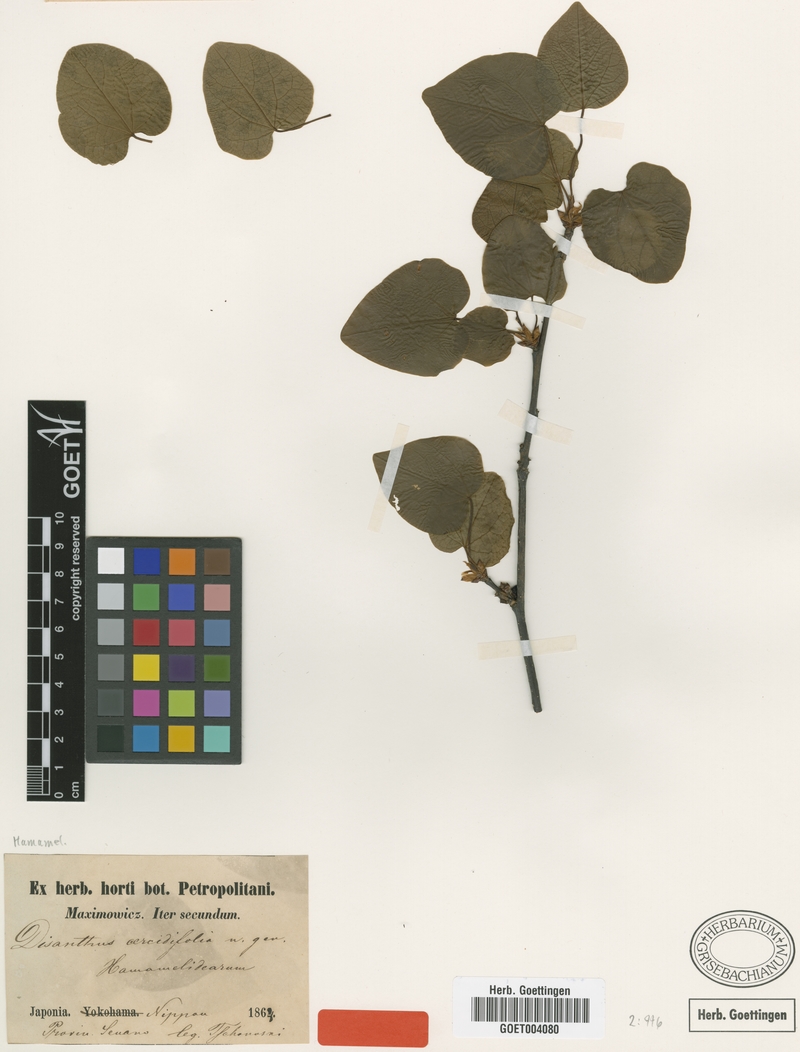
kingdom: Plantae
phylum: Tracheophyta
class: Magnoliopsida
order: Saxifragales
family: Hamamelidaceae
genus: Disanthus
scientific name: Disanthus cercidifolius
